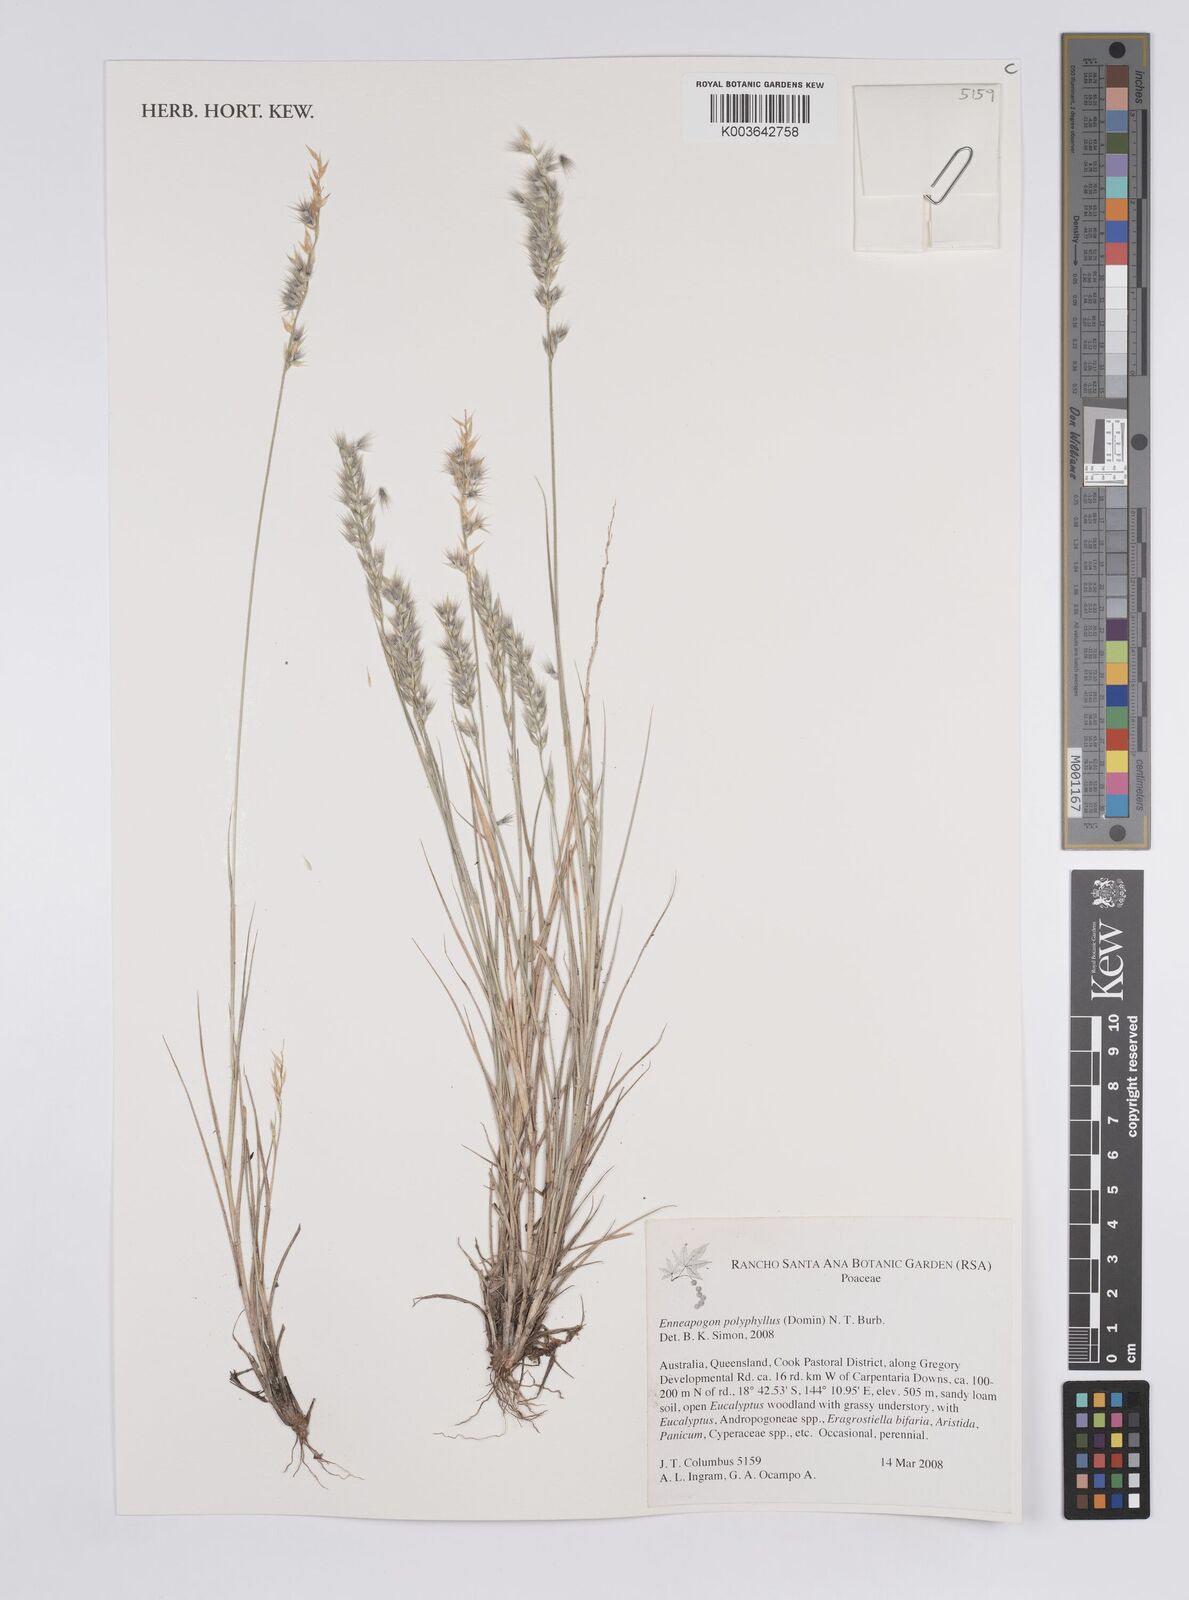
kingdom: Plantae
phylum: Tracheophyta
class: Liliopsida
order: Poales
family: Poaceae
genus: Enneapogon
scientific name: Enneapogon polyphyllus
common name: Leafy nineawn
